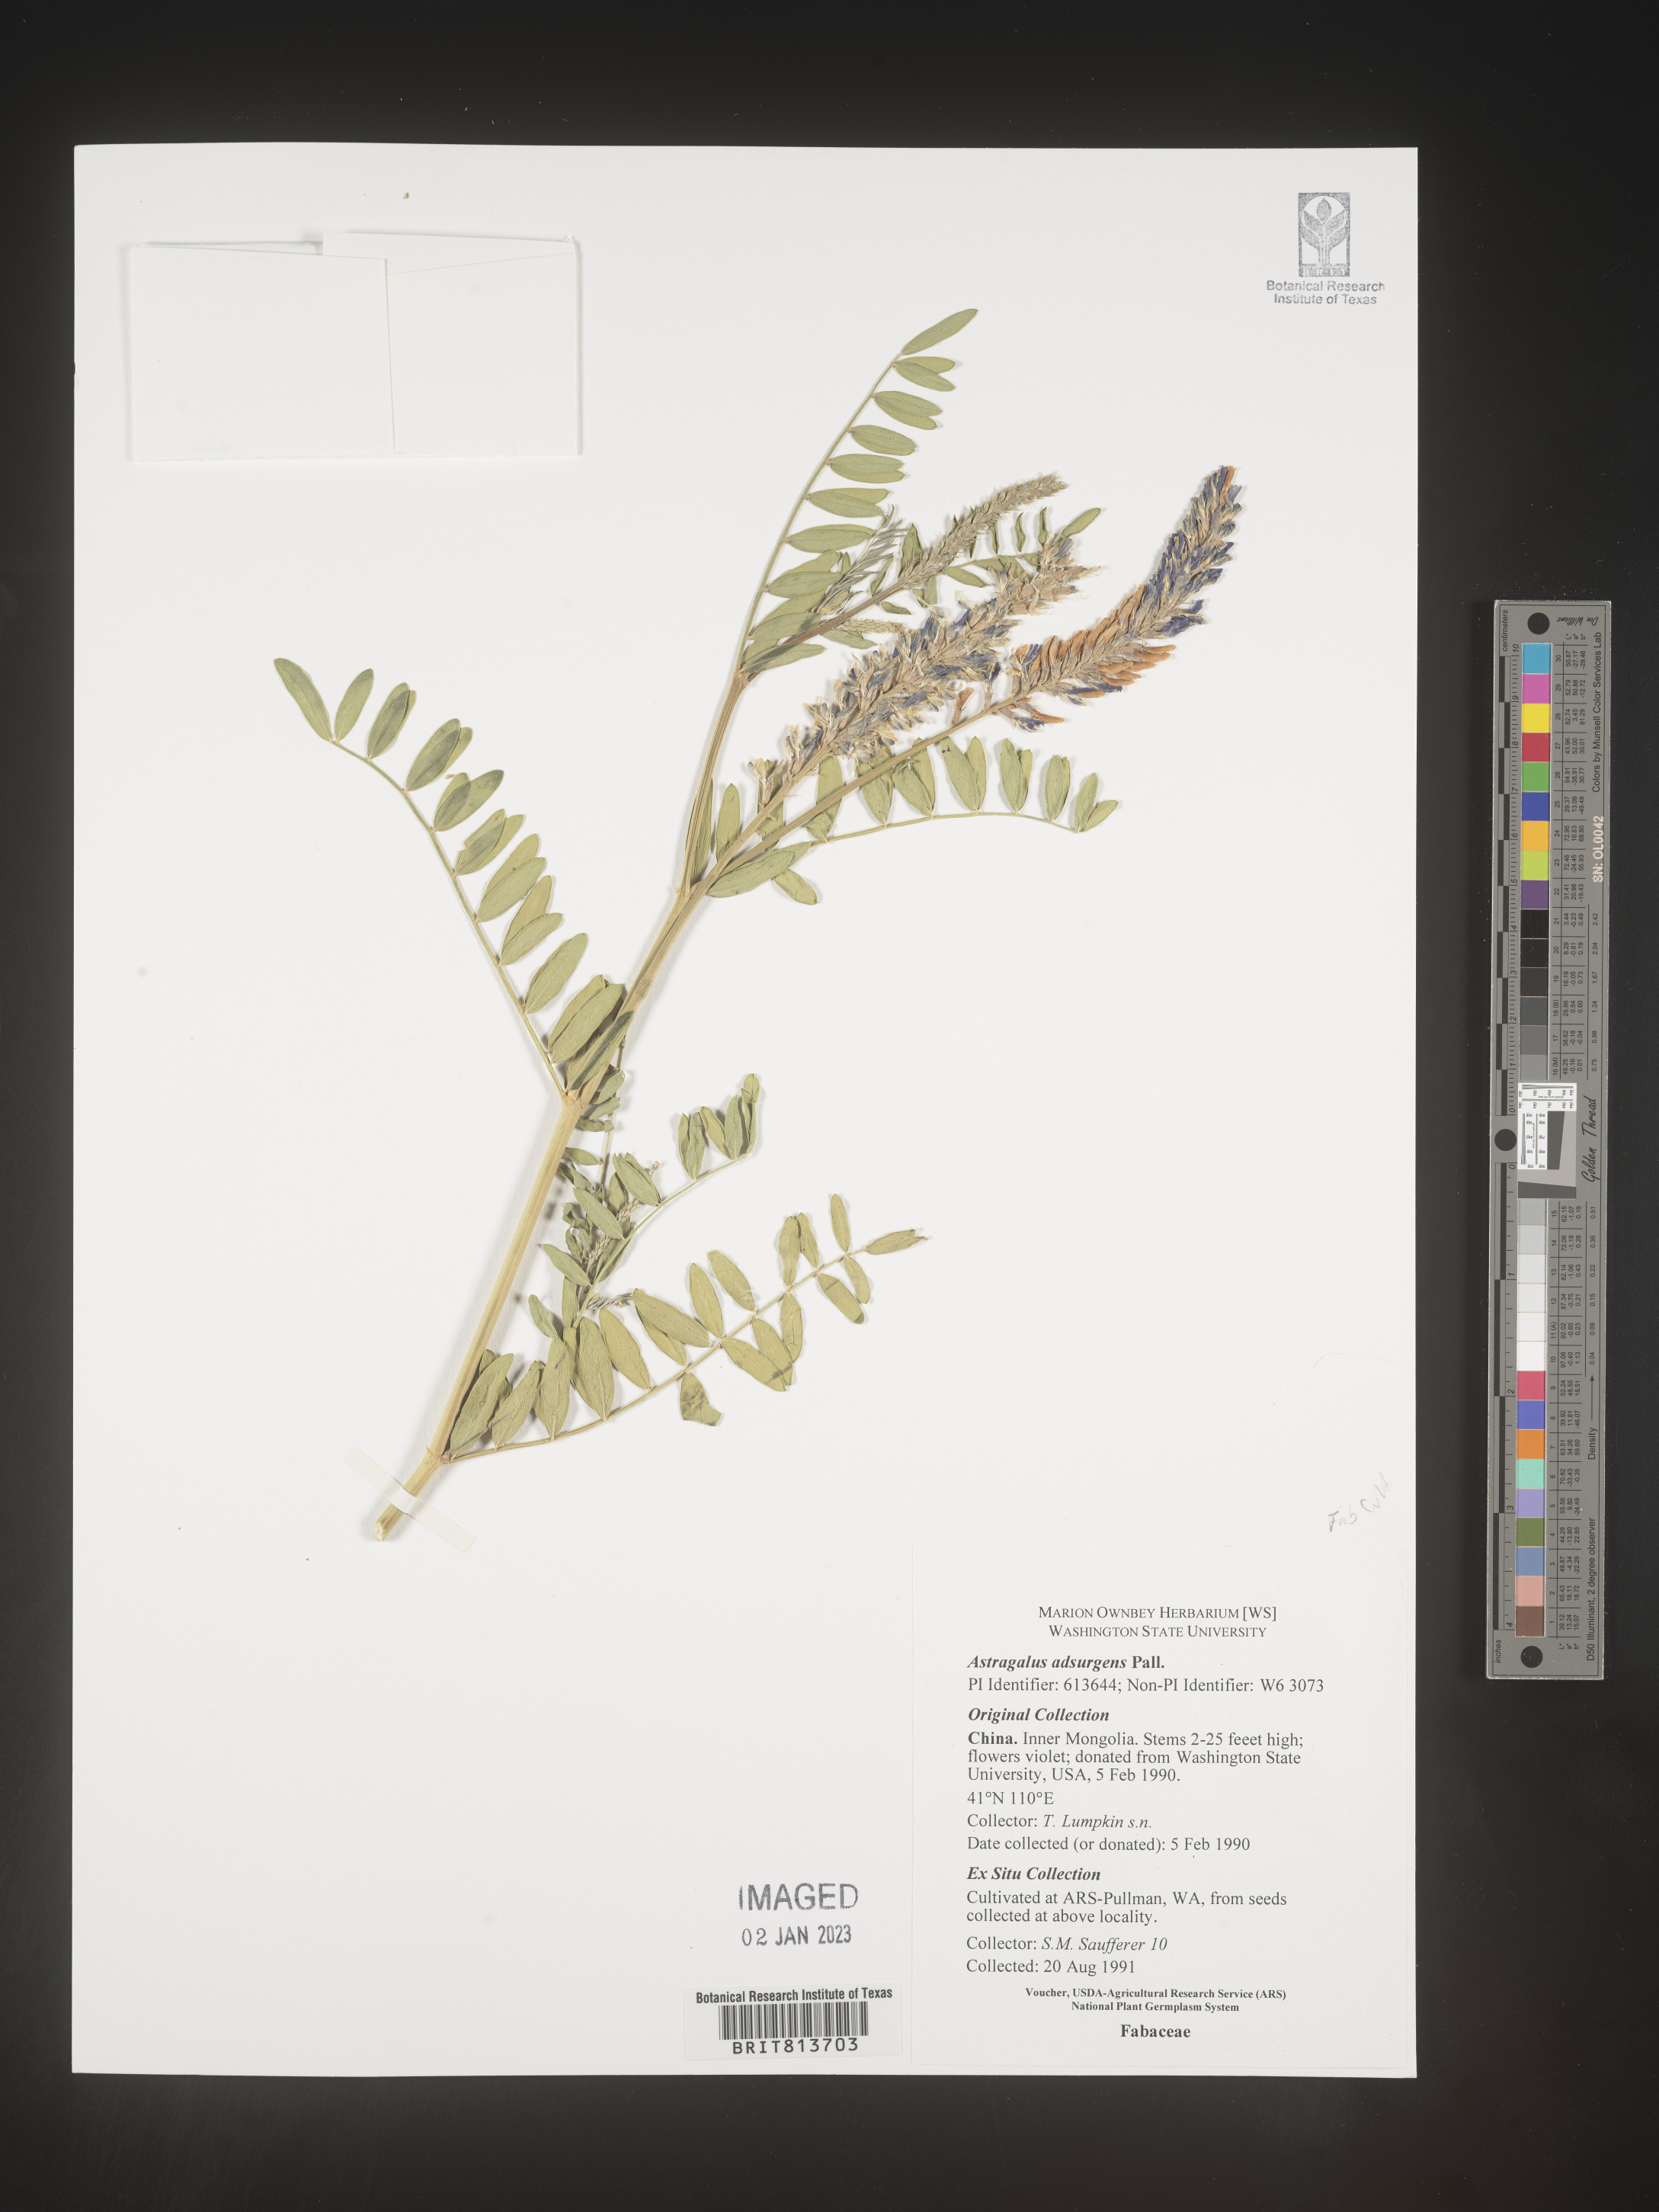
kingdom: Plantae
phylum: Tracheophyta
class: Magnoliopsida
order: Fabales
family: Fabaceae
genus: Astragalus
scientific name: Astragalus
